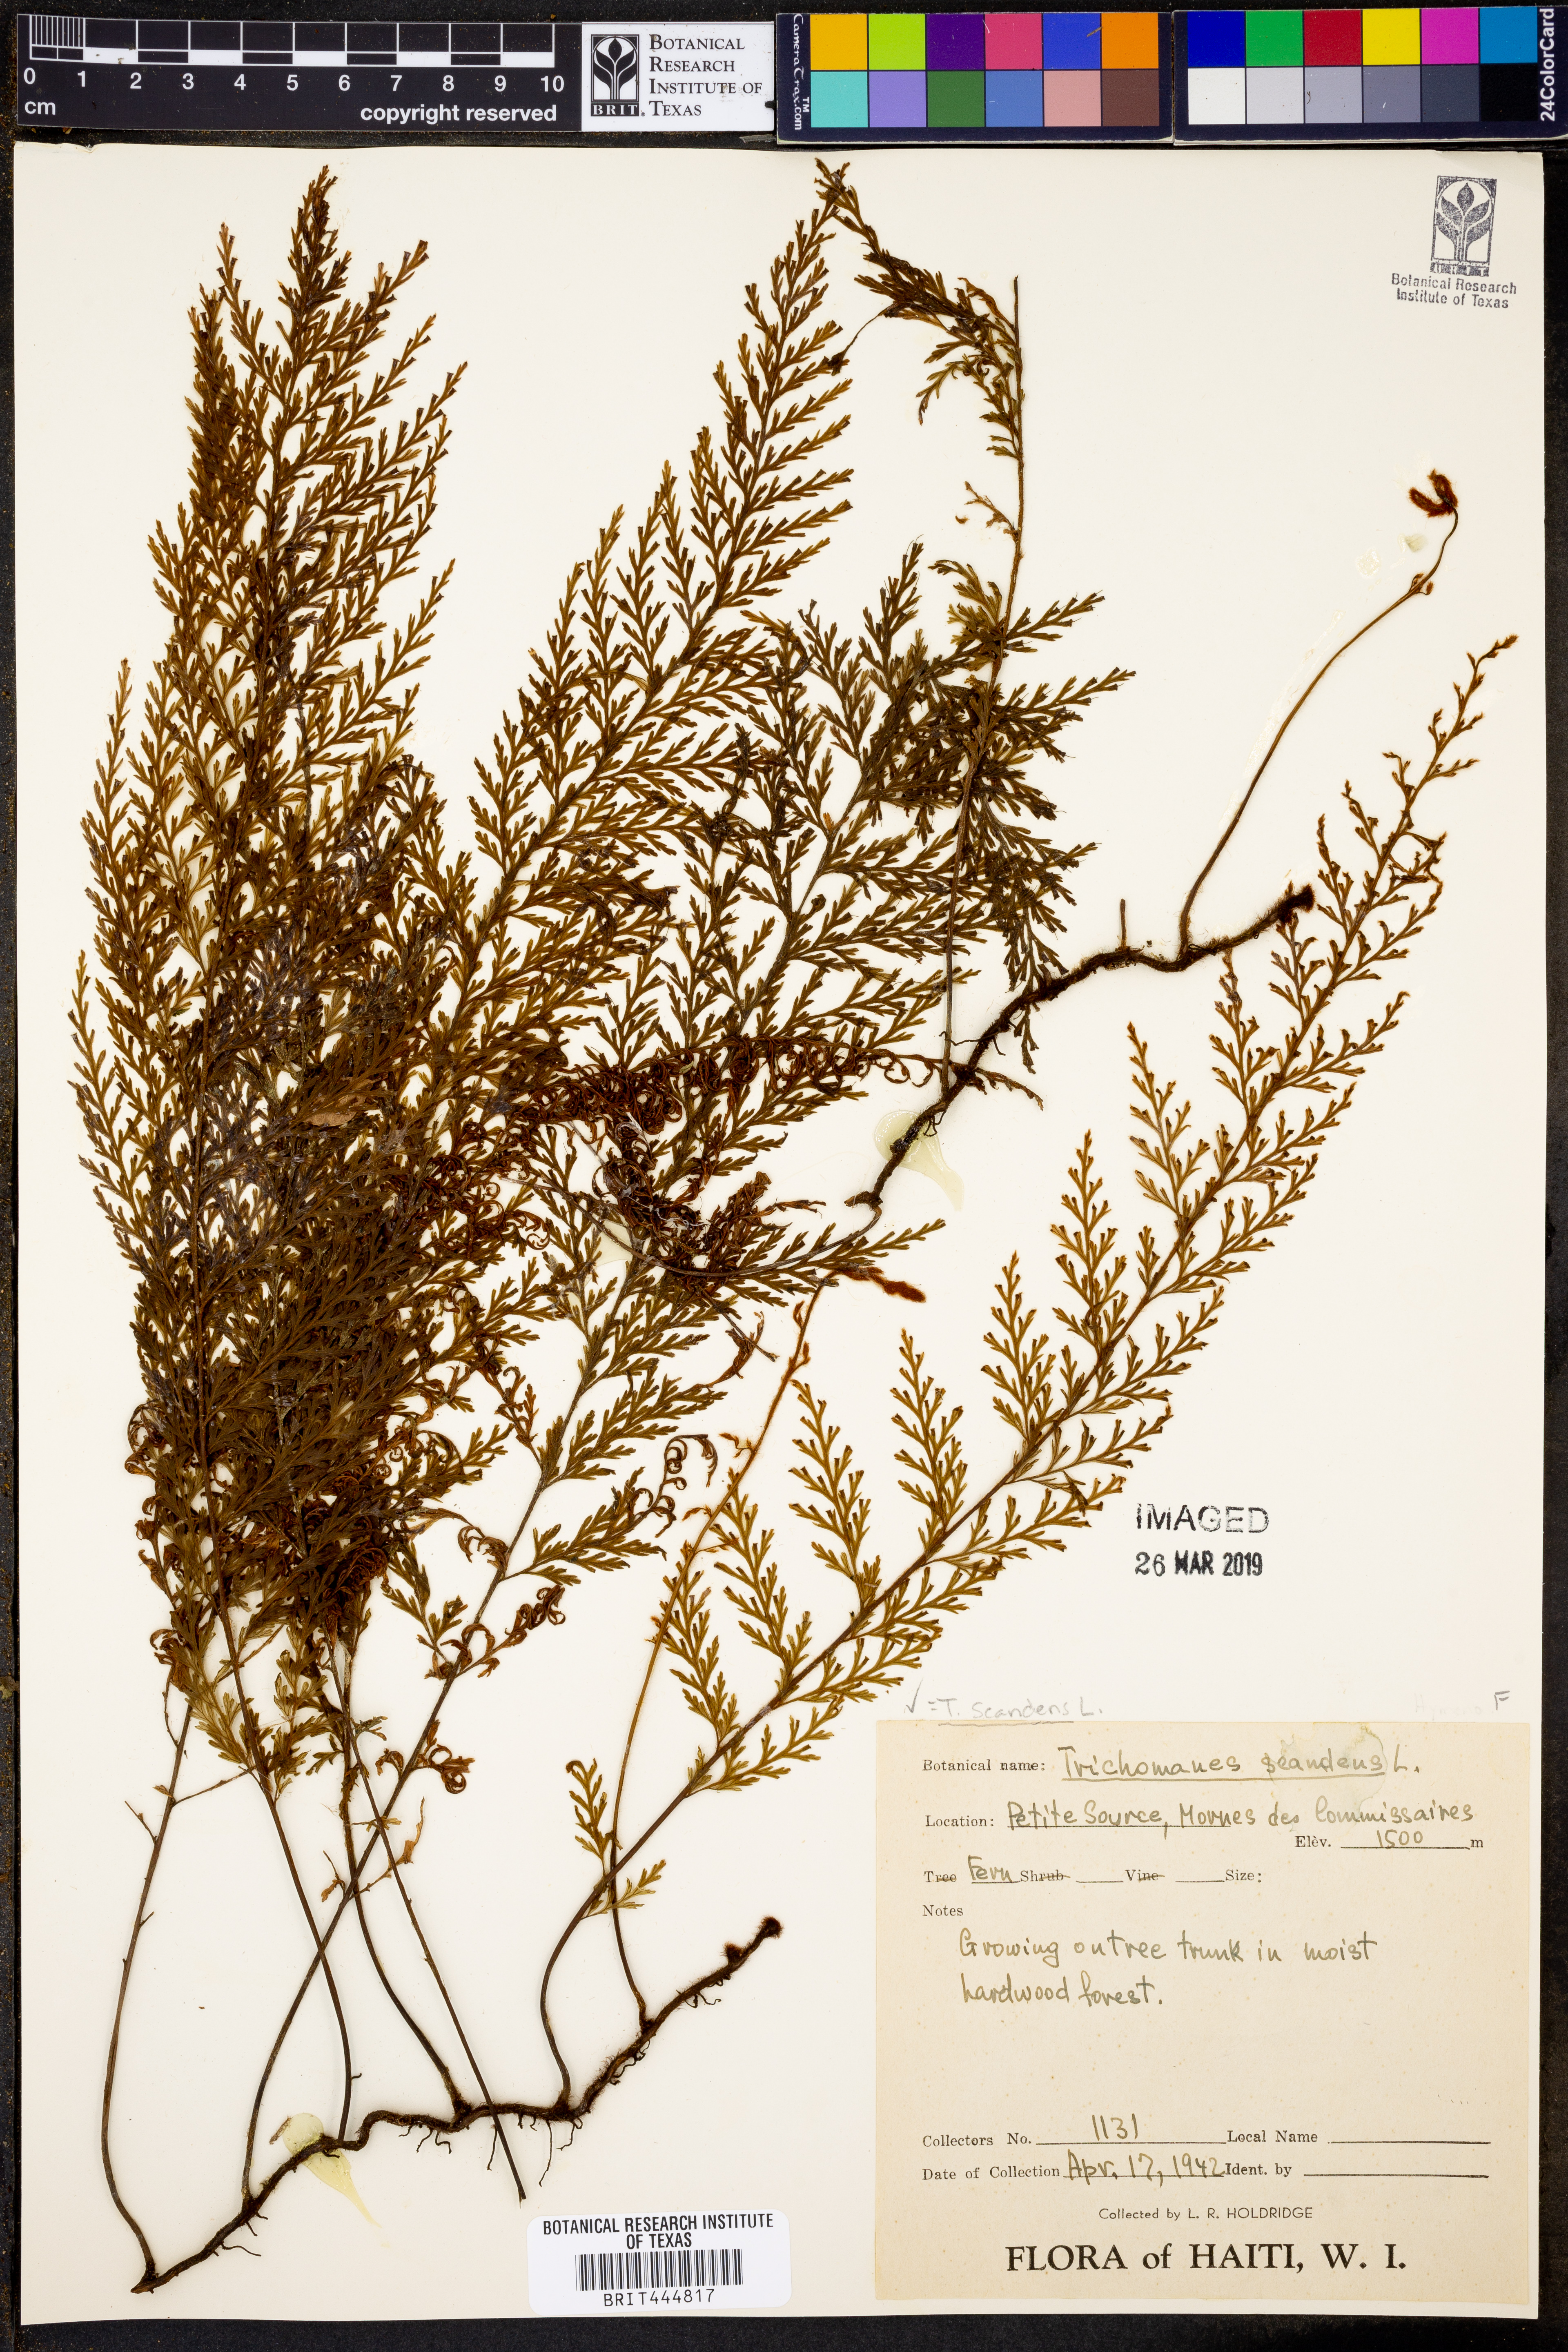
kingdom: Plantae
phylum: Tracheophyta
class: Polypodiopsida
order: Hymenophyllales
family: Hymenophyllaceae
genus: Trichomanes
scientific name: Trichomanes scandens
